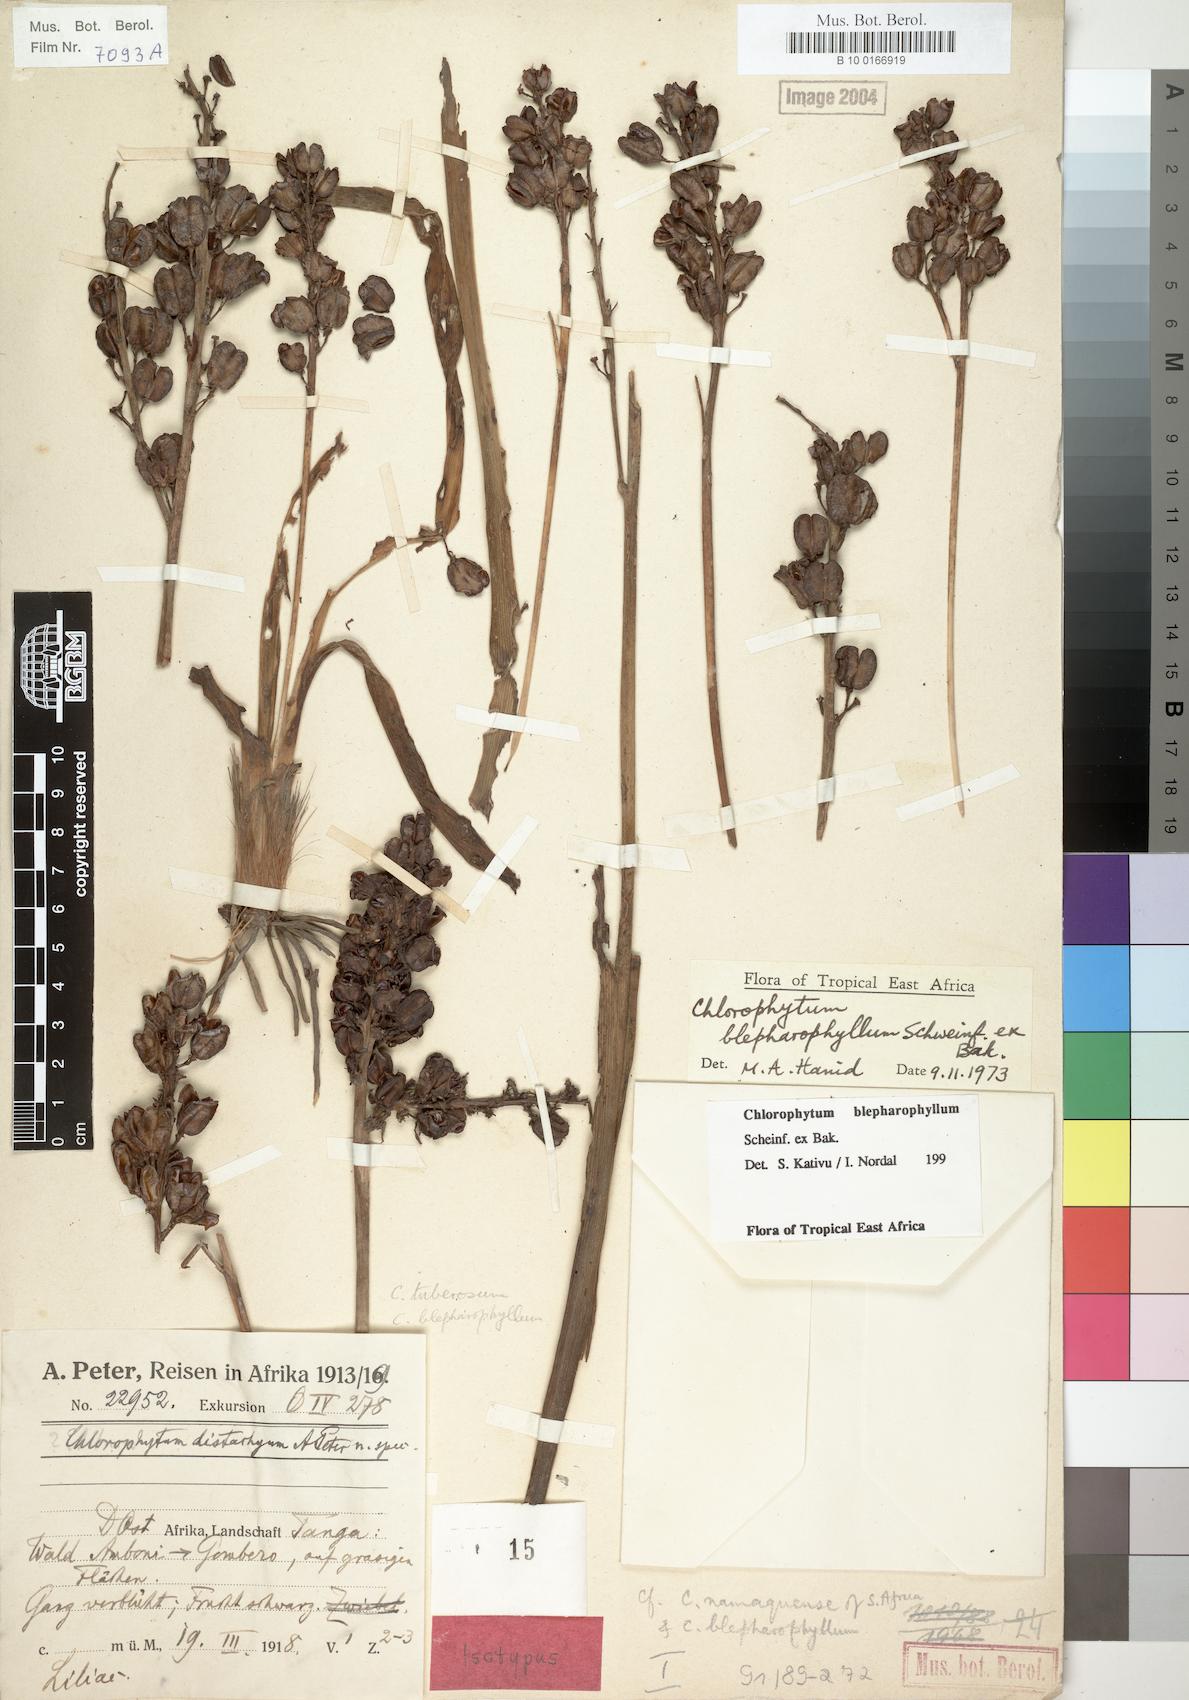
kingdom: Plantae
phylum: Tracheophyta
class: Liliopsida
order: Asparagales
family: Asparagaceae
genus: Chlorophytum
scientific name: Chlorophytum blepharophyllum
